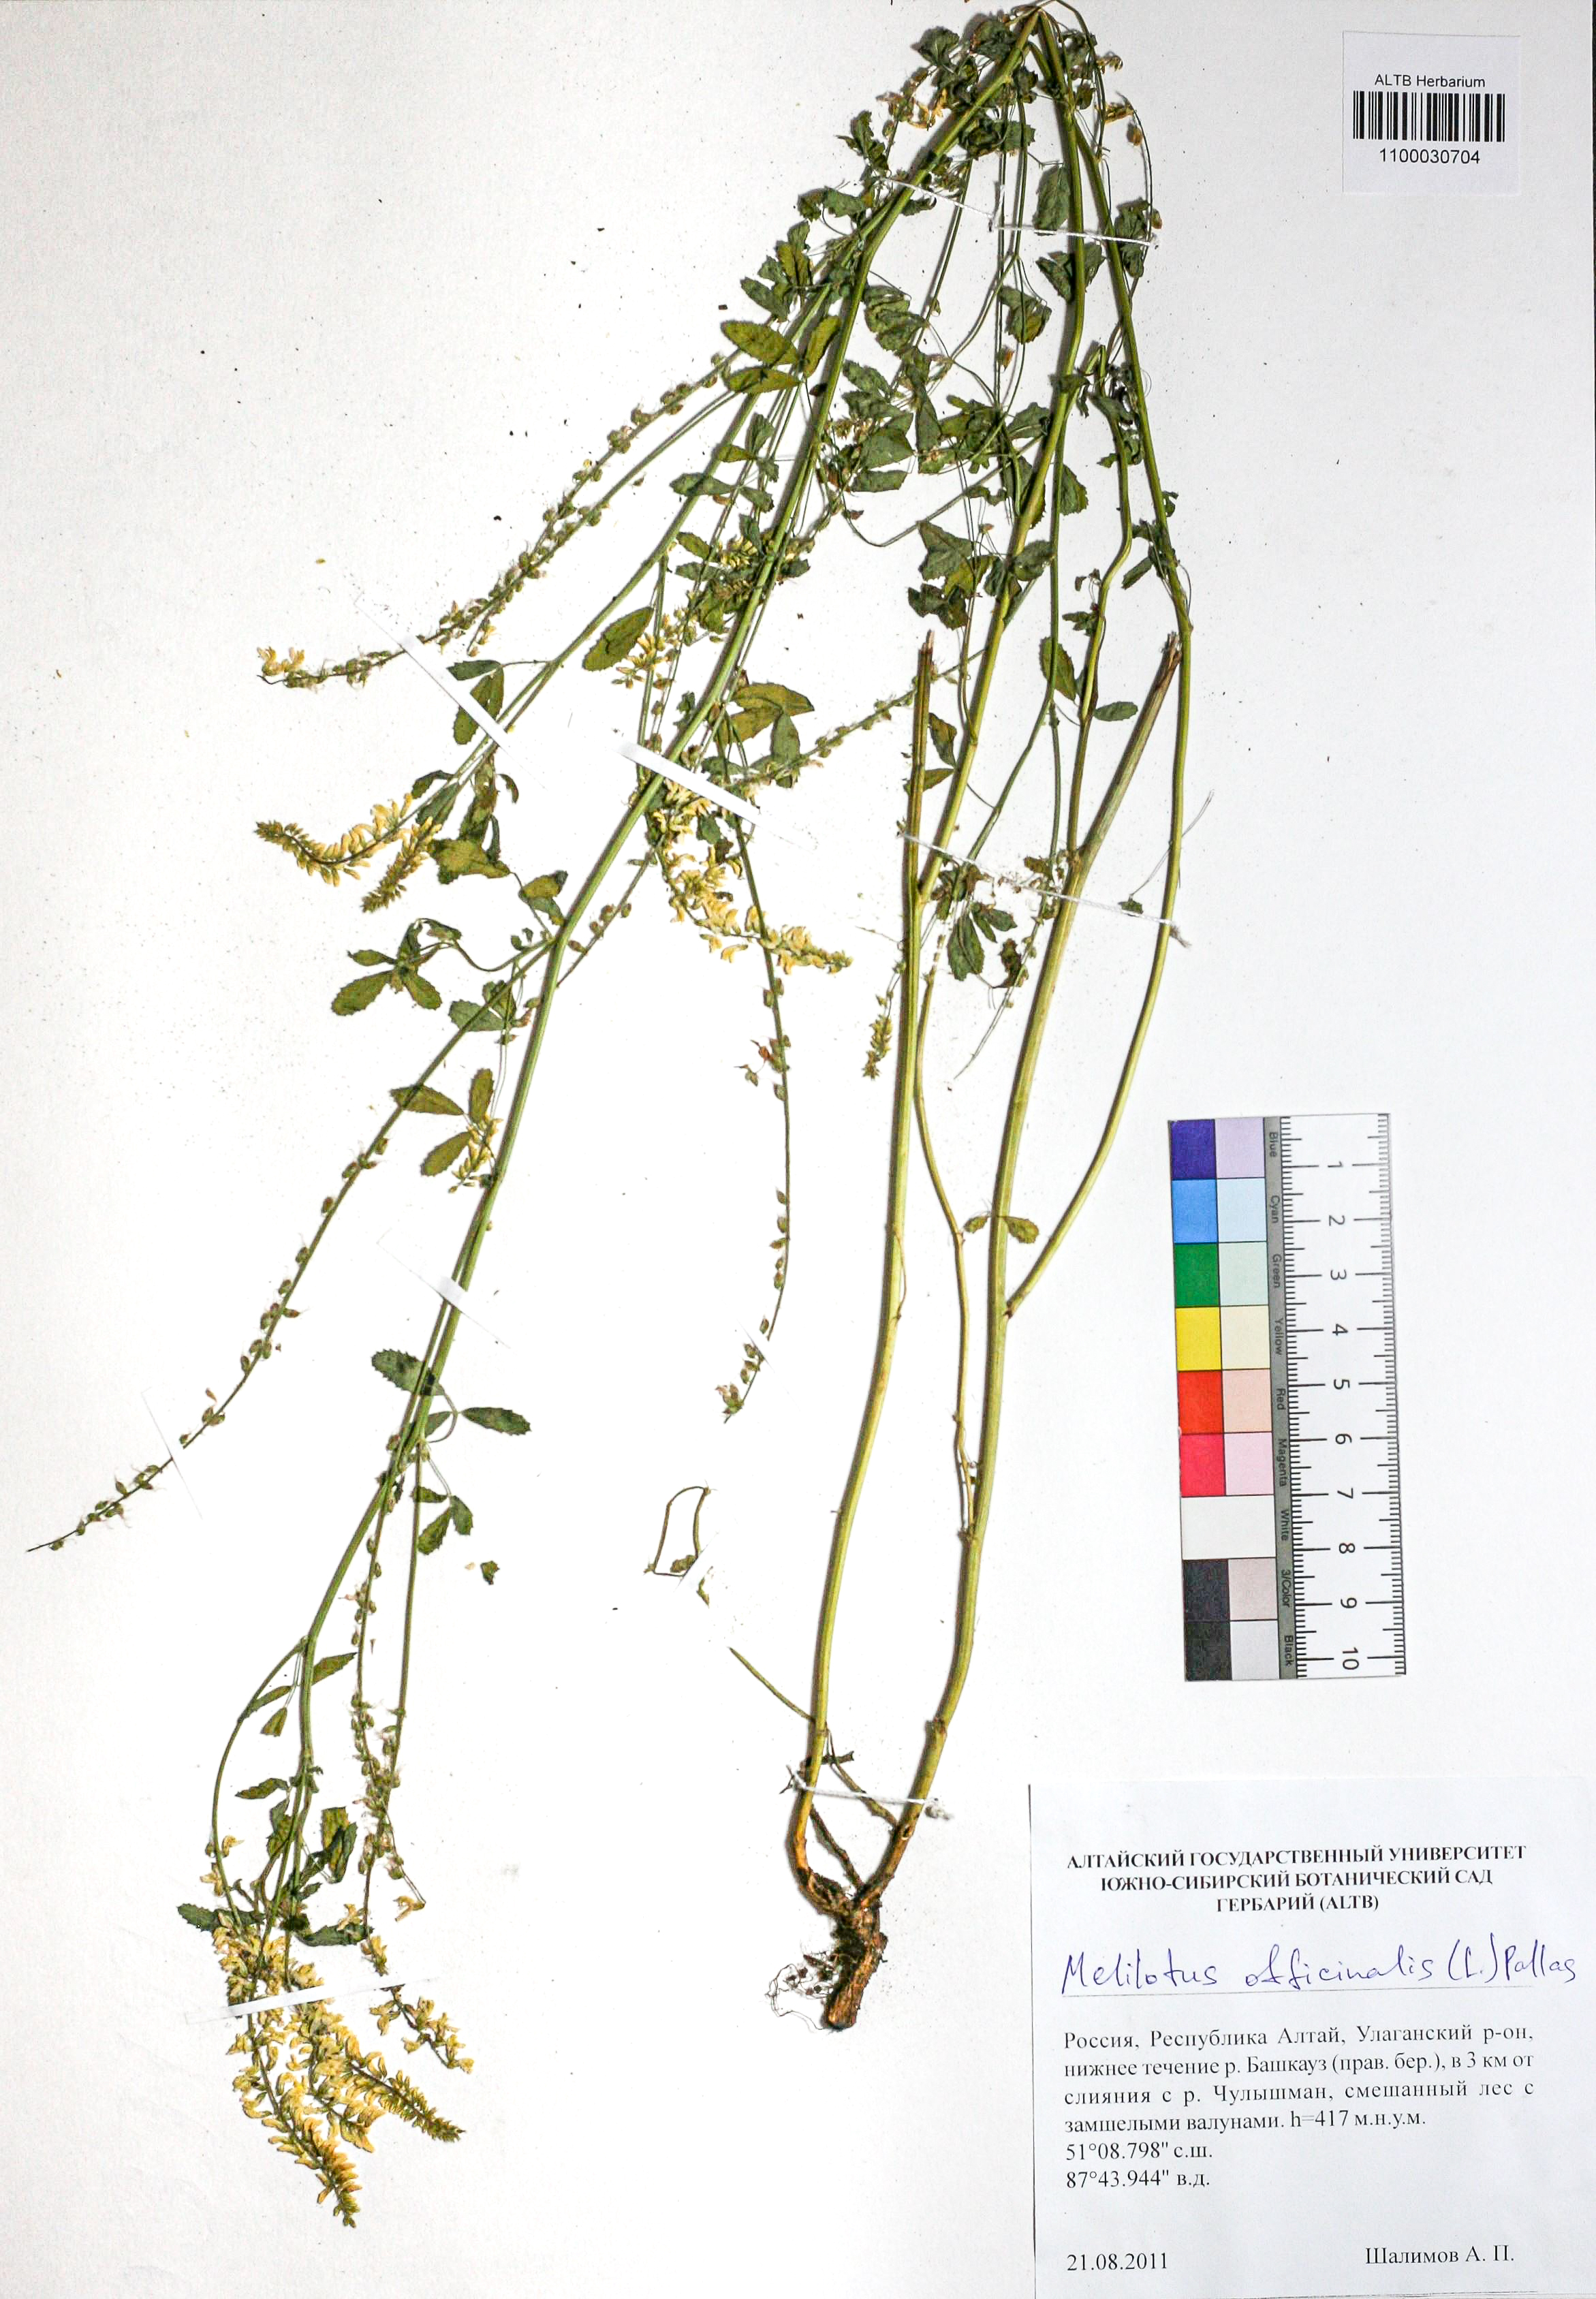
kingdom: Plantae
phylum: Tracheophyta
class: Magnoliopsida
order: Fabales
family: Fabaceae
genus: Melilotus
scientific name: Melilotus officinalis
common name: Sweetclover
